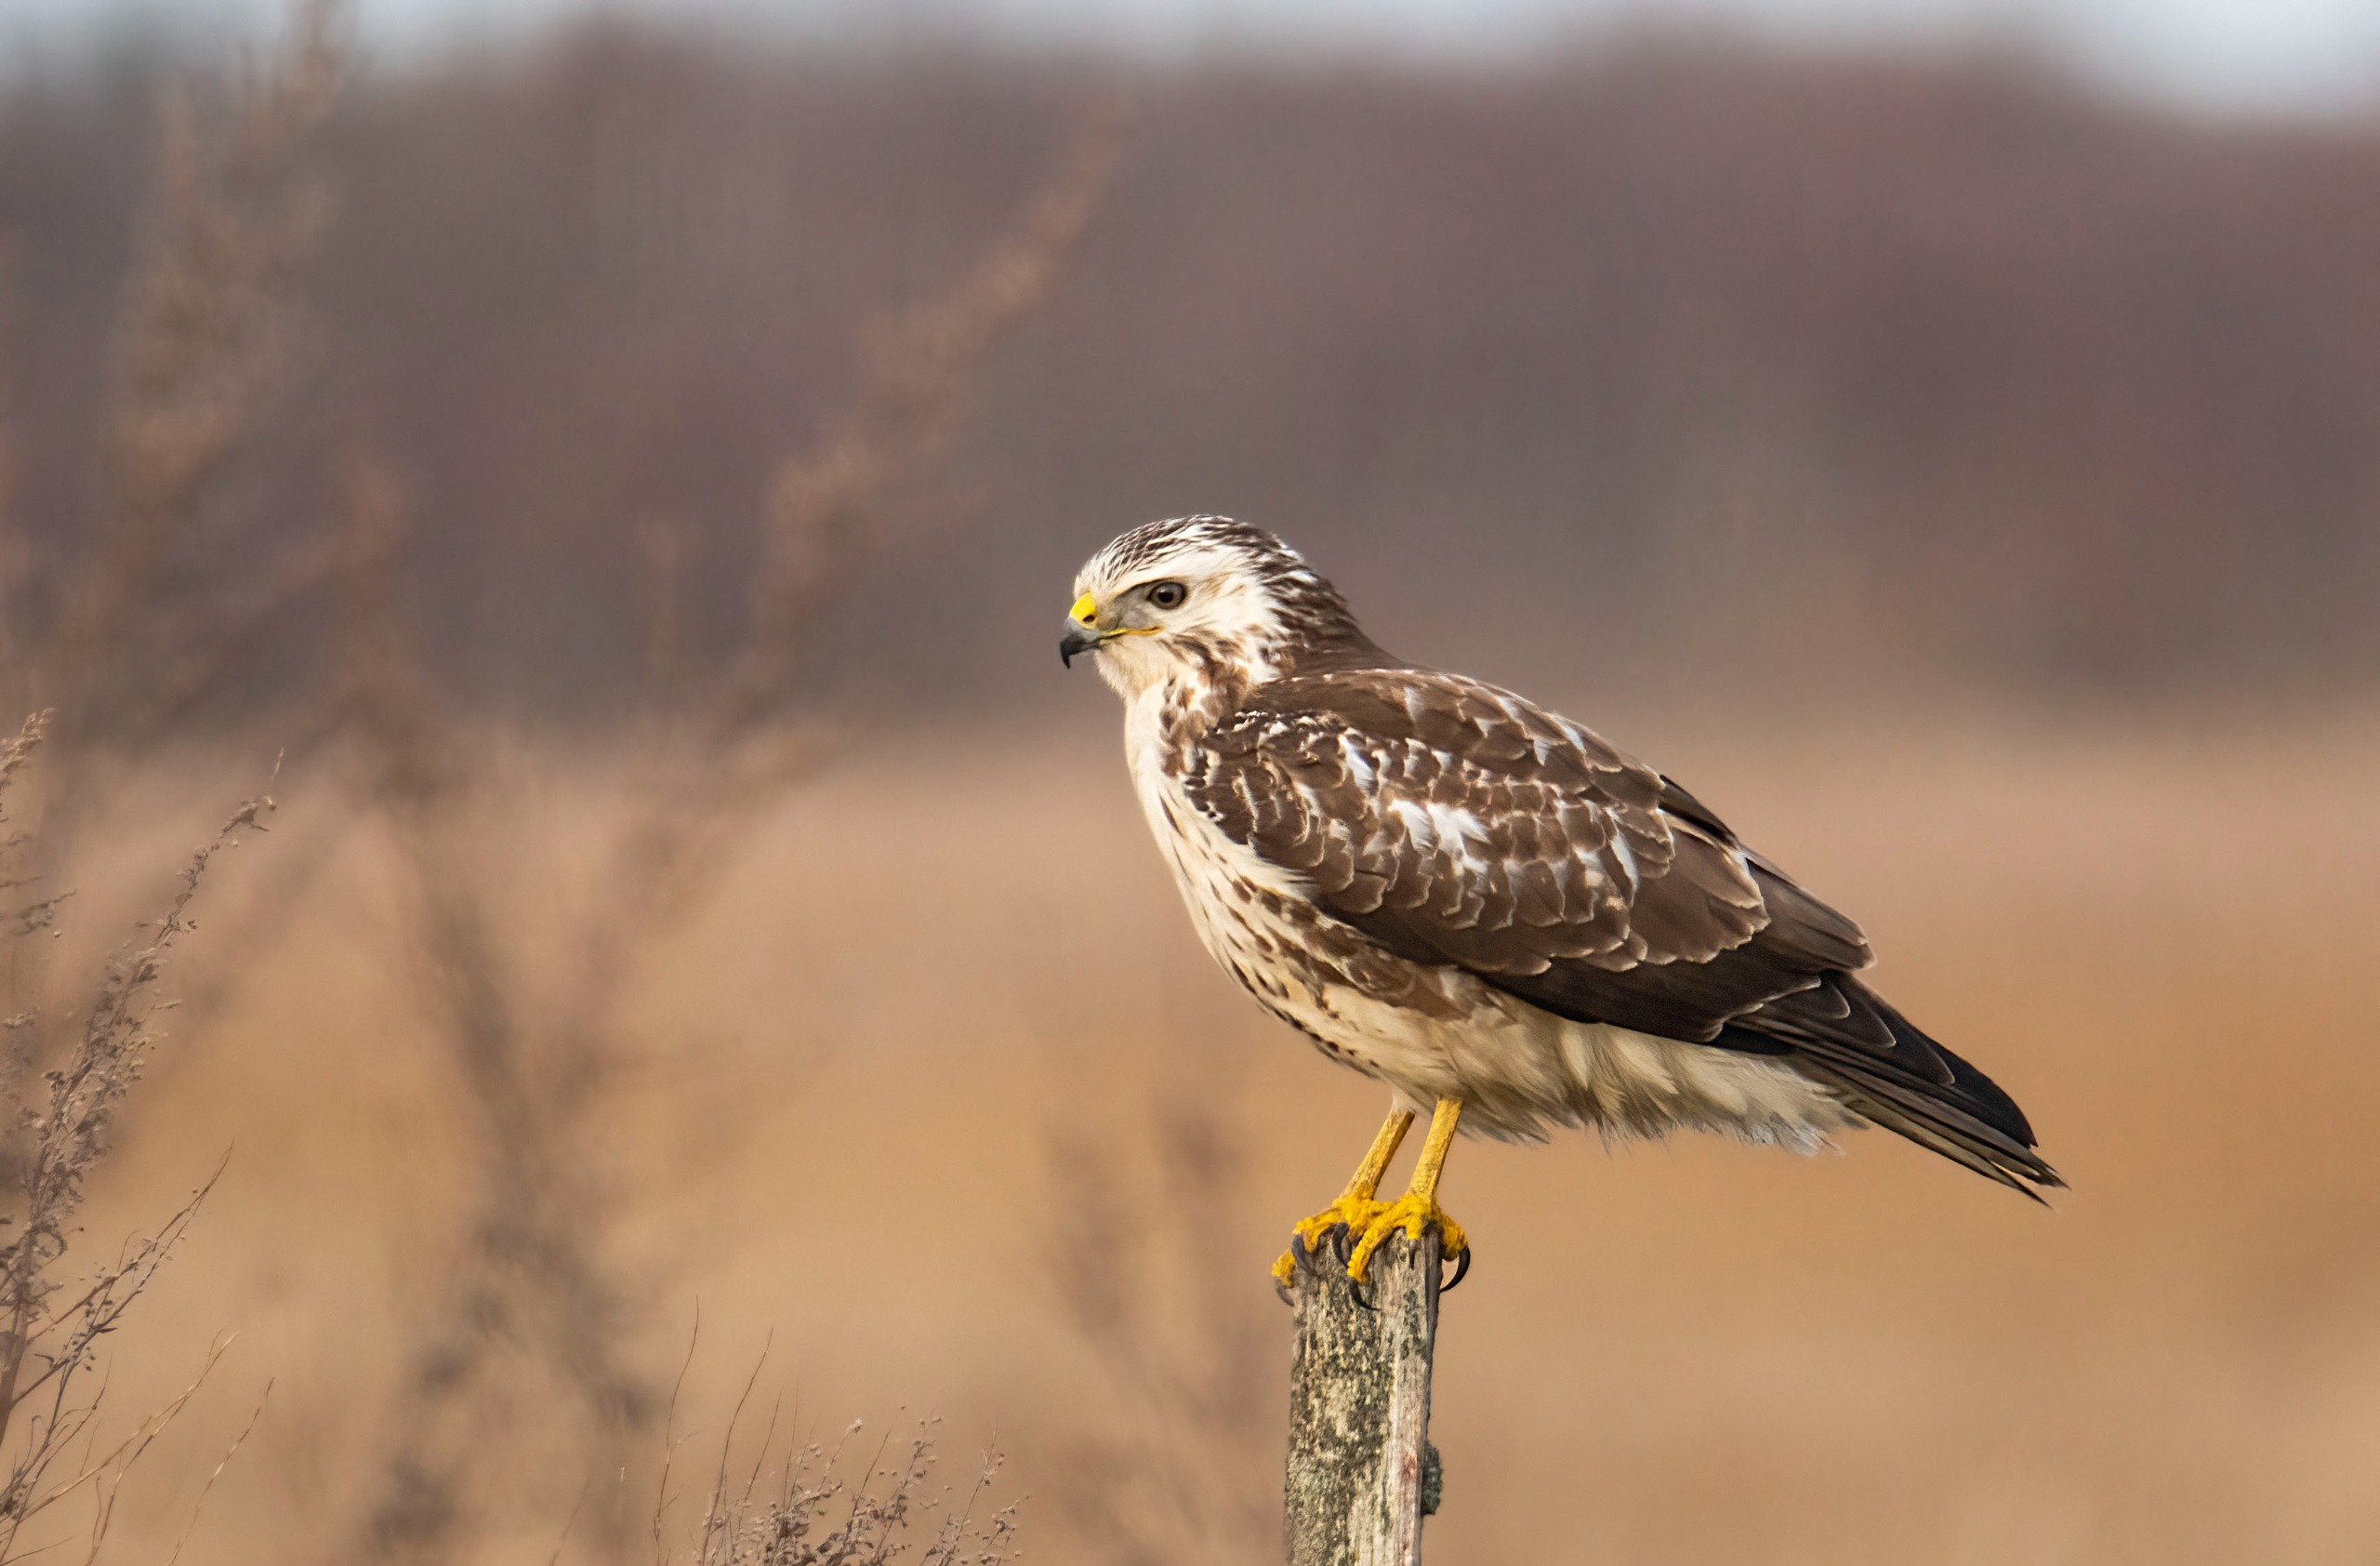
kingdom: Animalia
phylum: Chordata
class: Aves
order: Accipitriformes
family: Accipitridae
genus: Buteo
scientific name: Buteo buteo
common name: Musvåge
